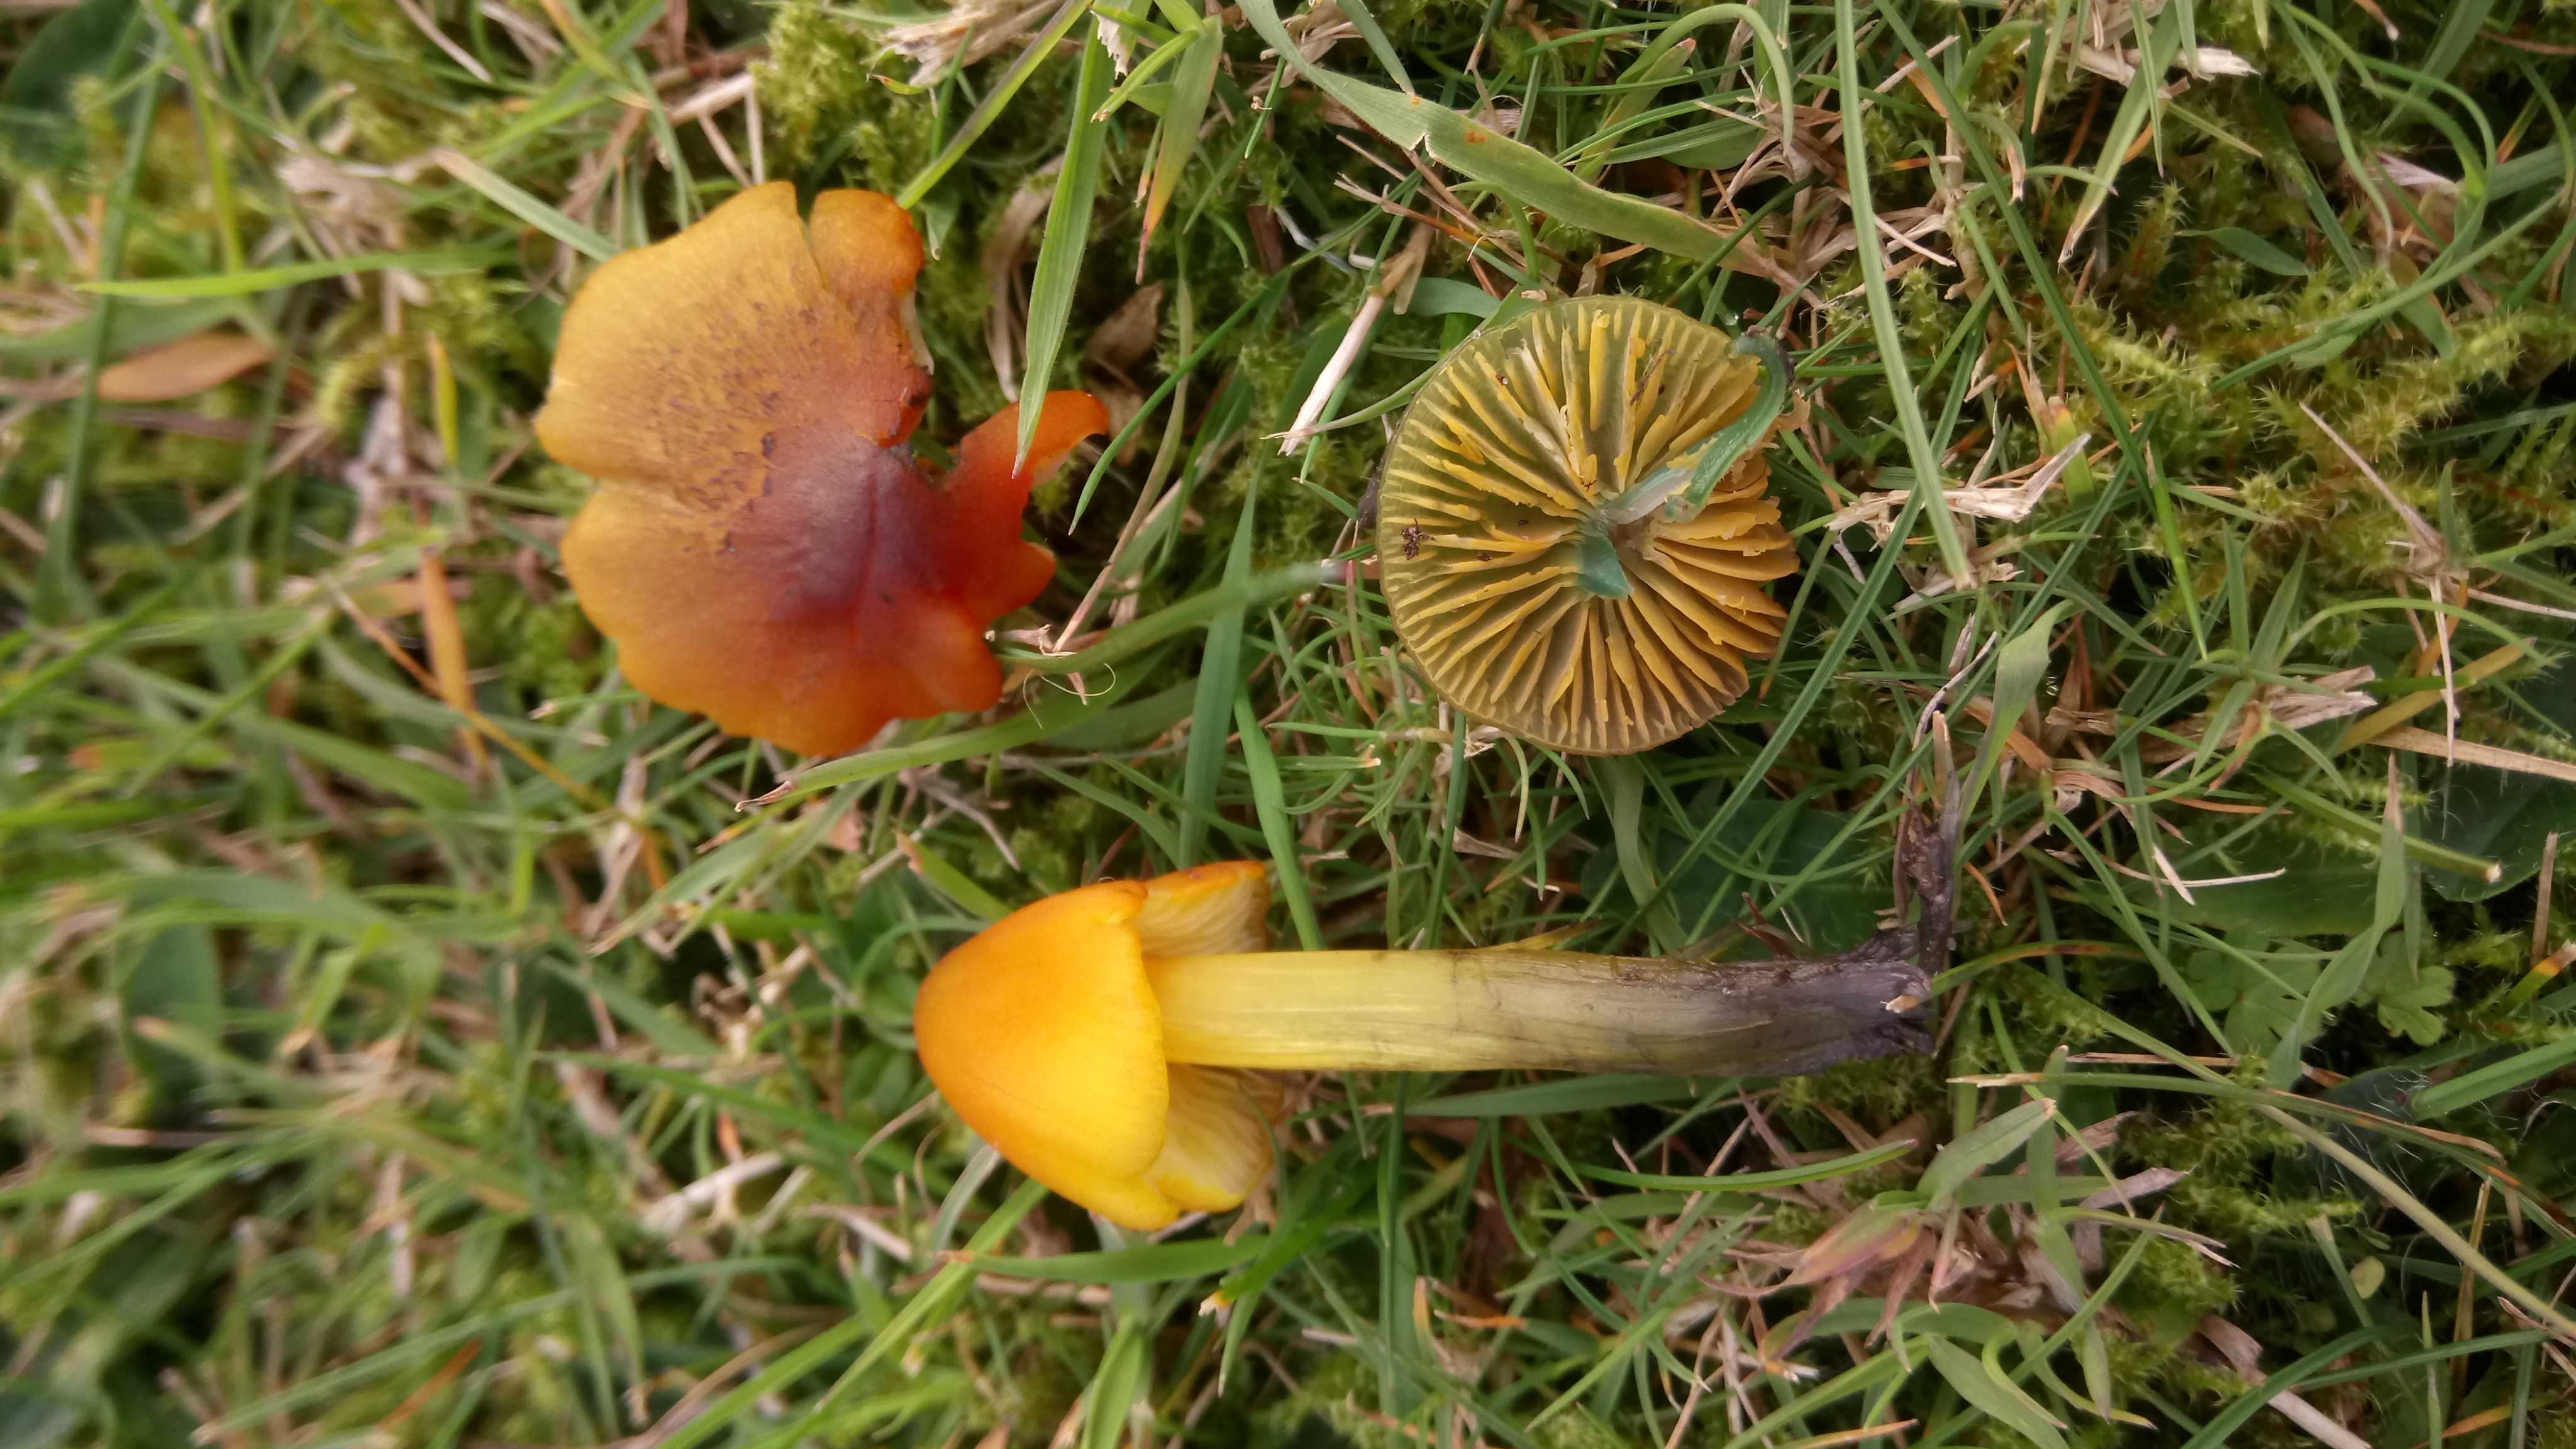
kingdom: Fungi
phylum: Basidiomycota
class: Agaricomycetes
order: Agaricales
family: Hygrophoraceae
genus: Hygrocybe
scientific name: Hygrocybe conica
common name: kegle-vokshat
